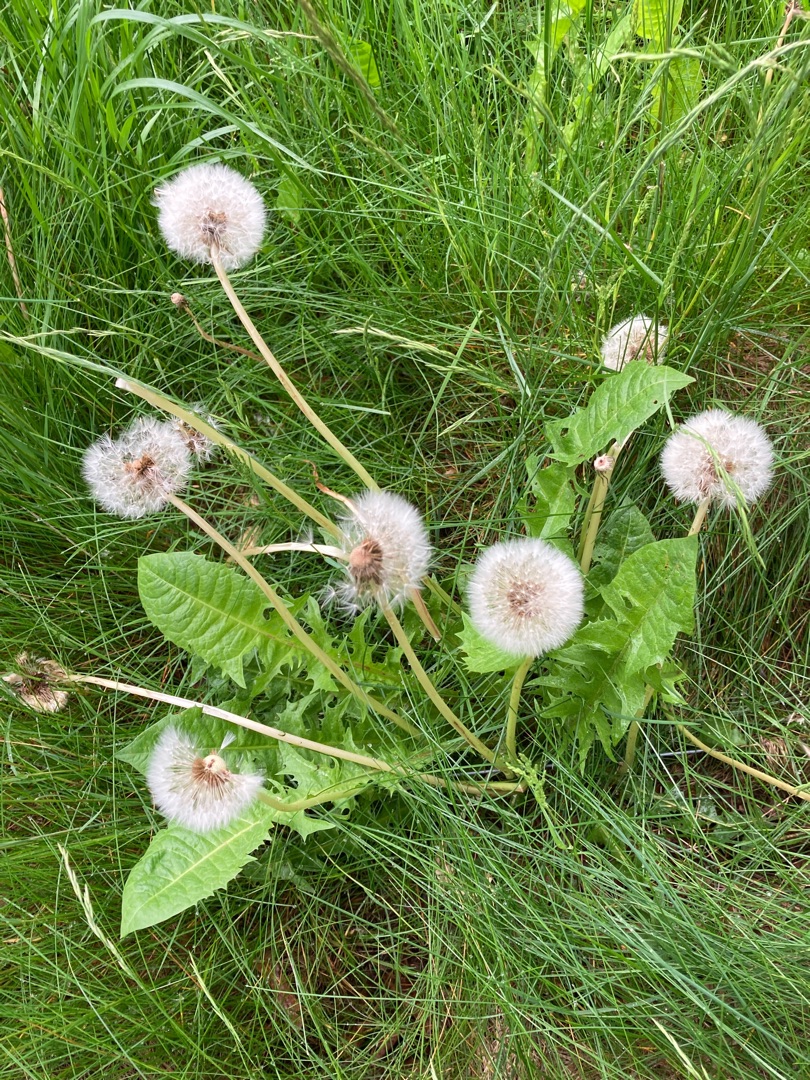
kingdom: Plantae
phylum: Tracheophyta
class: Magnoliopsida
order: Asterales
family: Asteraceae
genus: Taraxacum
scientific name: Taraxacum
